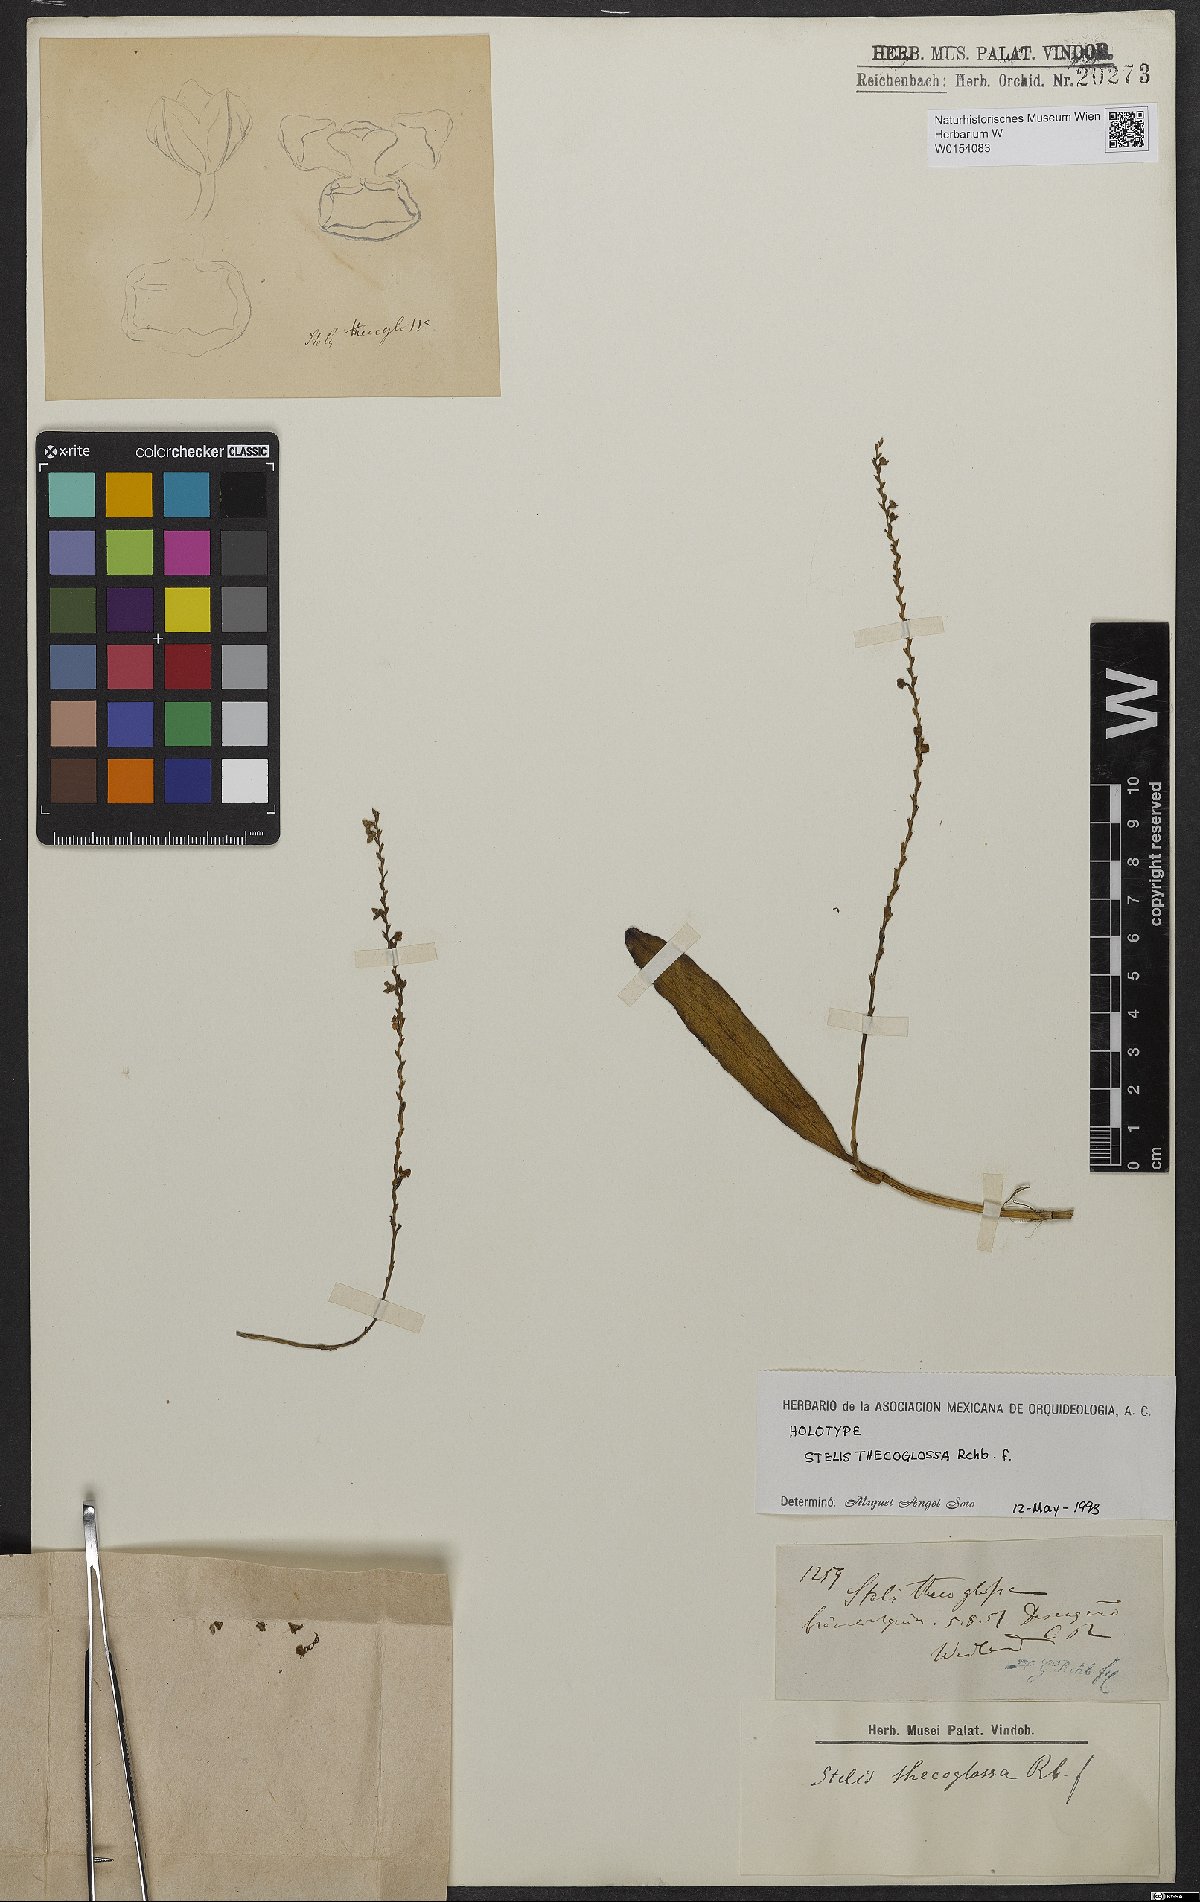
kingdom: Plantae
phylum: Tracheophyta
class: Liliopsida
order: Asparagales
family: Orchidaceae
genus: Stelis
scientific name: Stelis thecoglossa
